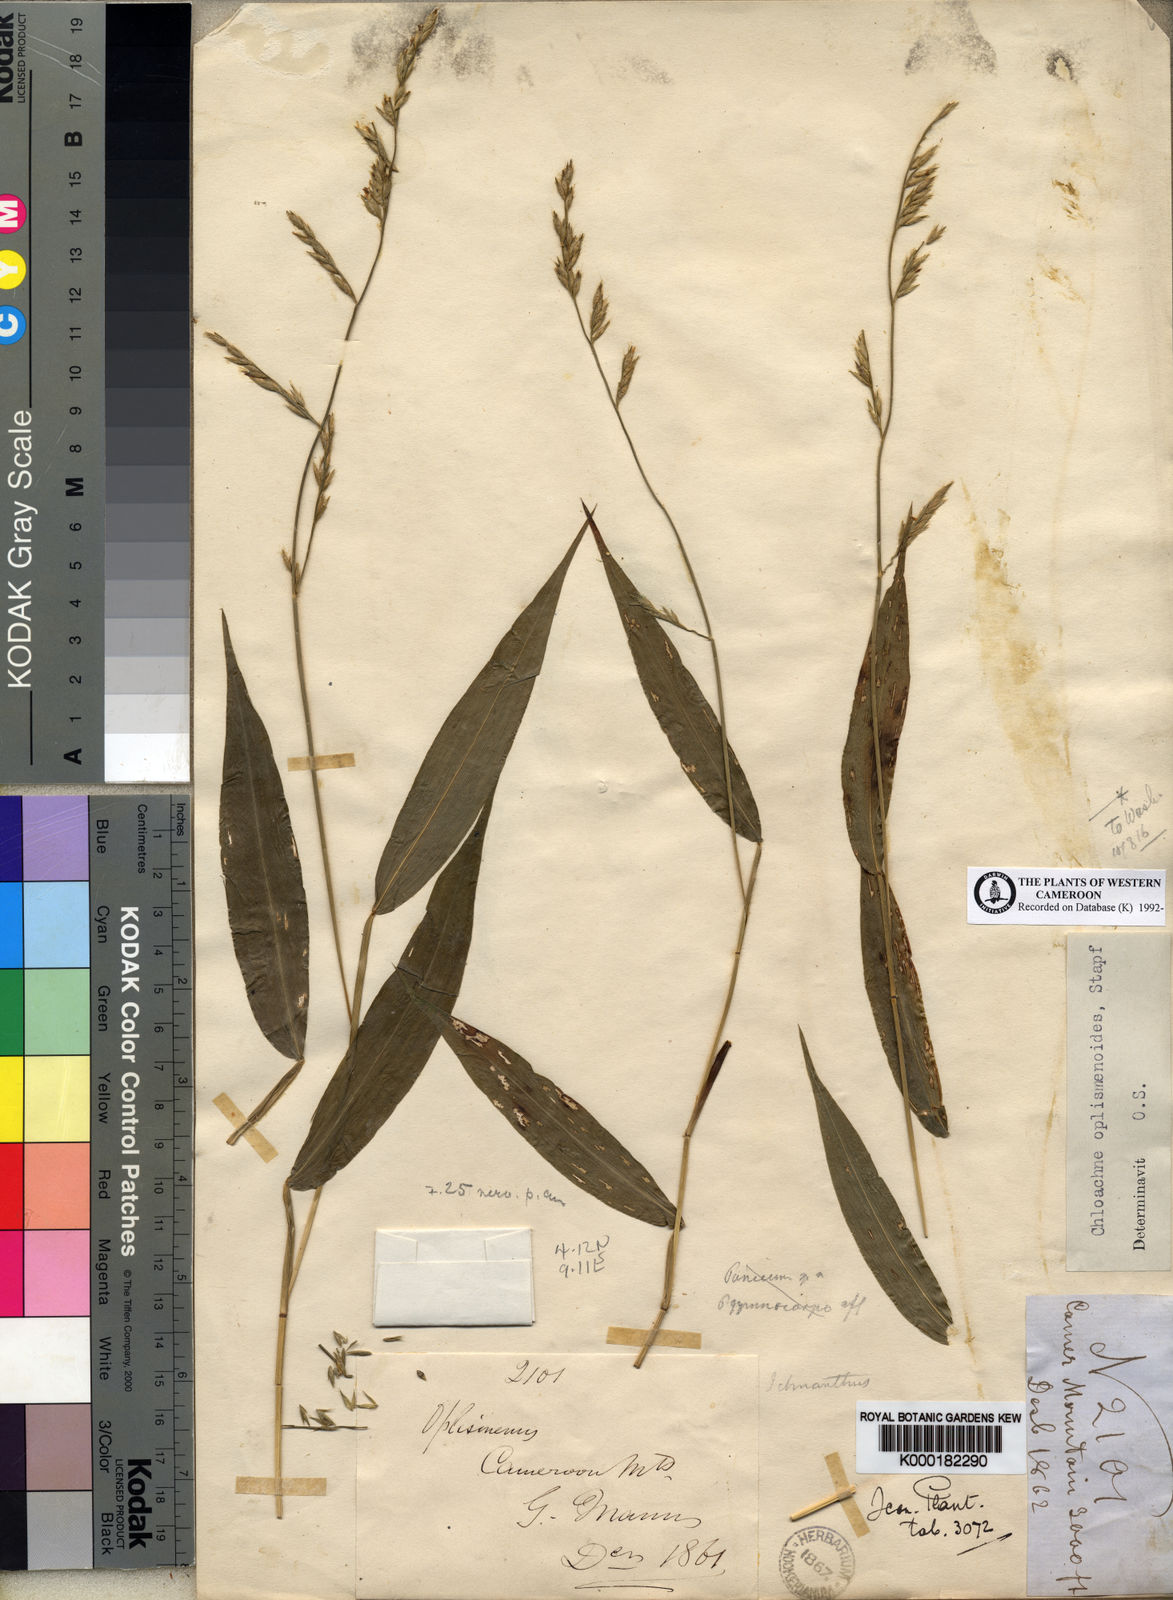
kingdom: Plantae
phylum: Tracheophyta
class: Liliopsida
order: Poales
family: Poaceae
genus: Poecilostachys
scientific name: Poecilostachys oplismenoides
